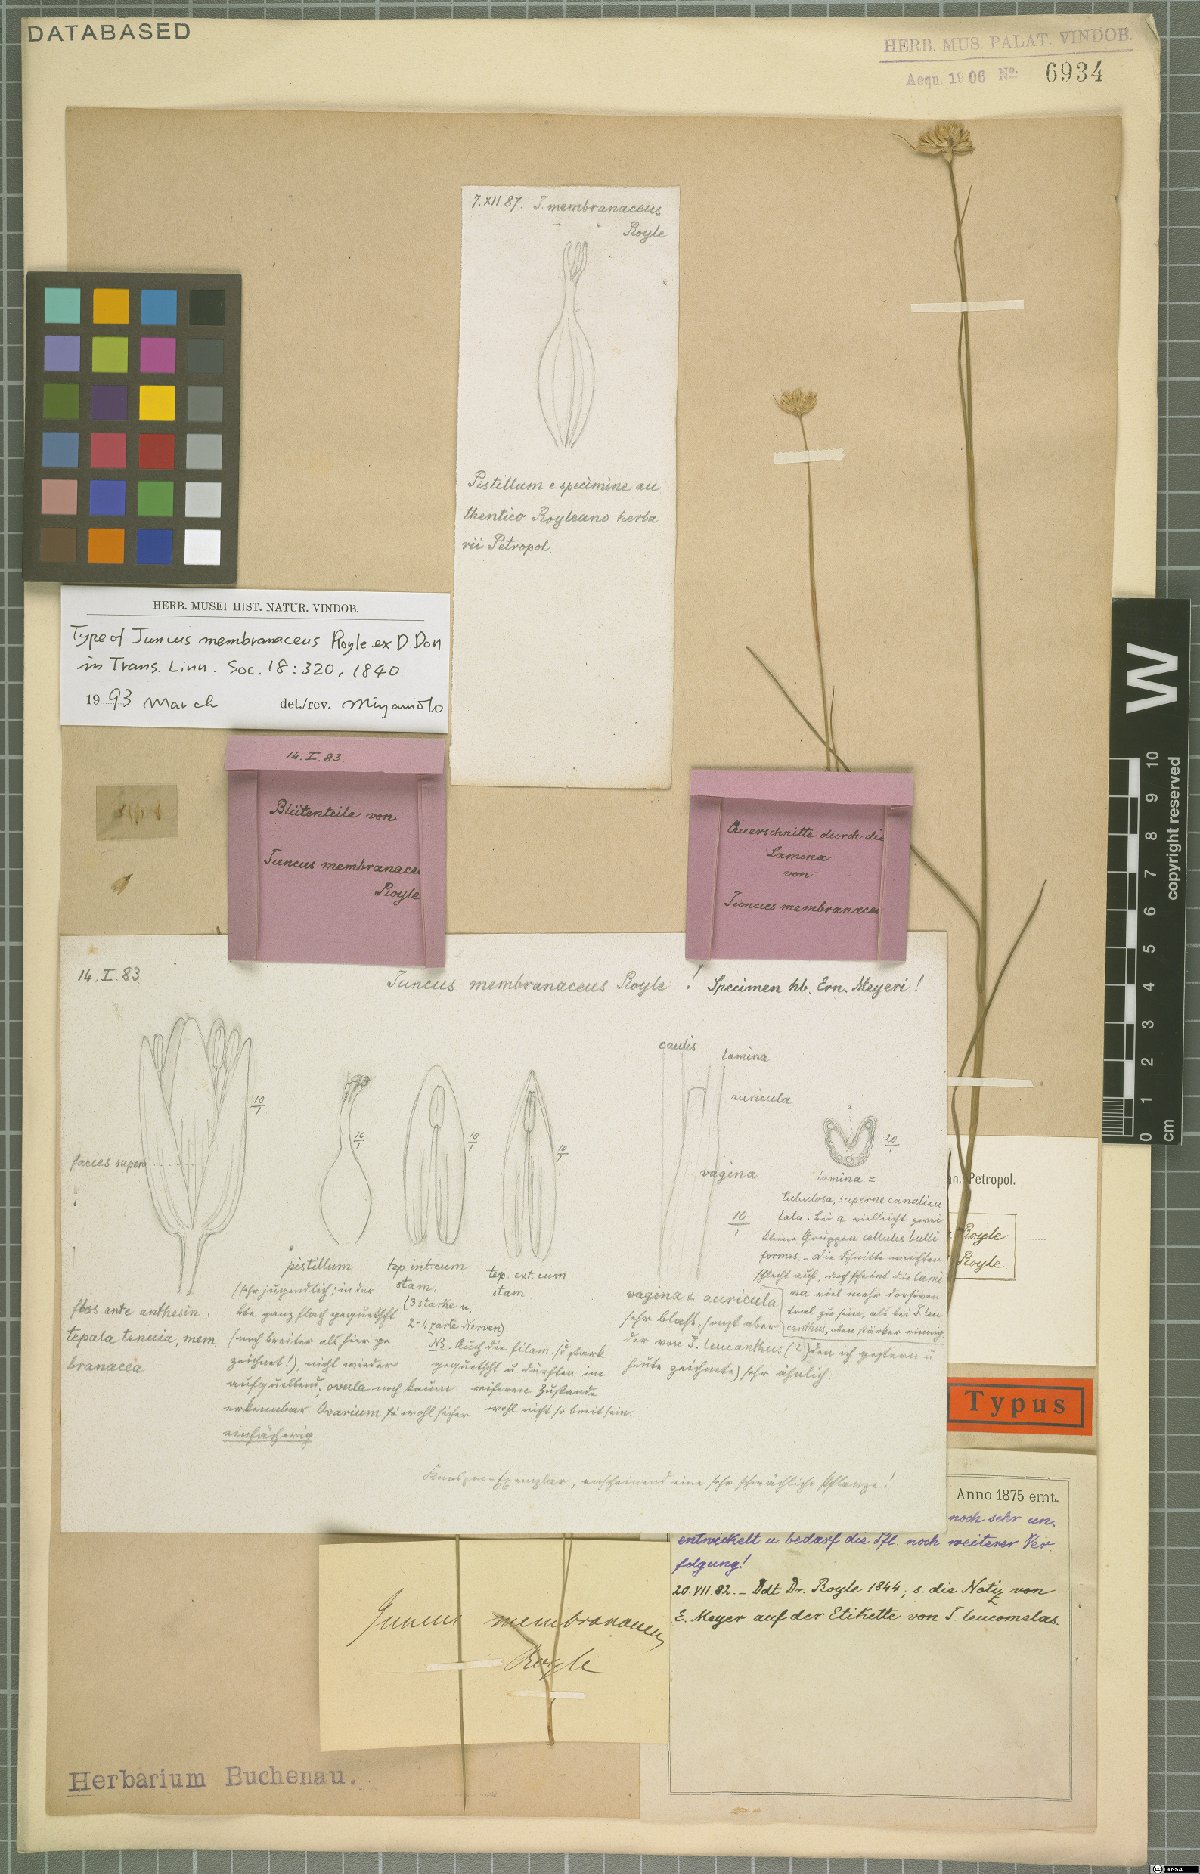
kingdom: Plantae
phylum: Tracheophyta
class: Liliopsida
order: Poales
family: Juncaceae
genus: Juncus
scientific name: Juncus membranaceus
